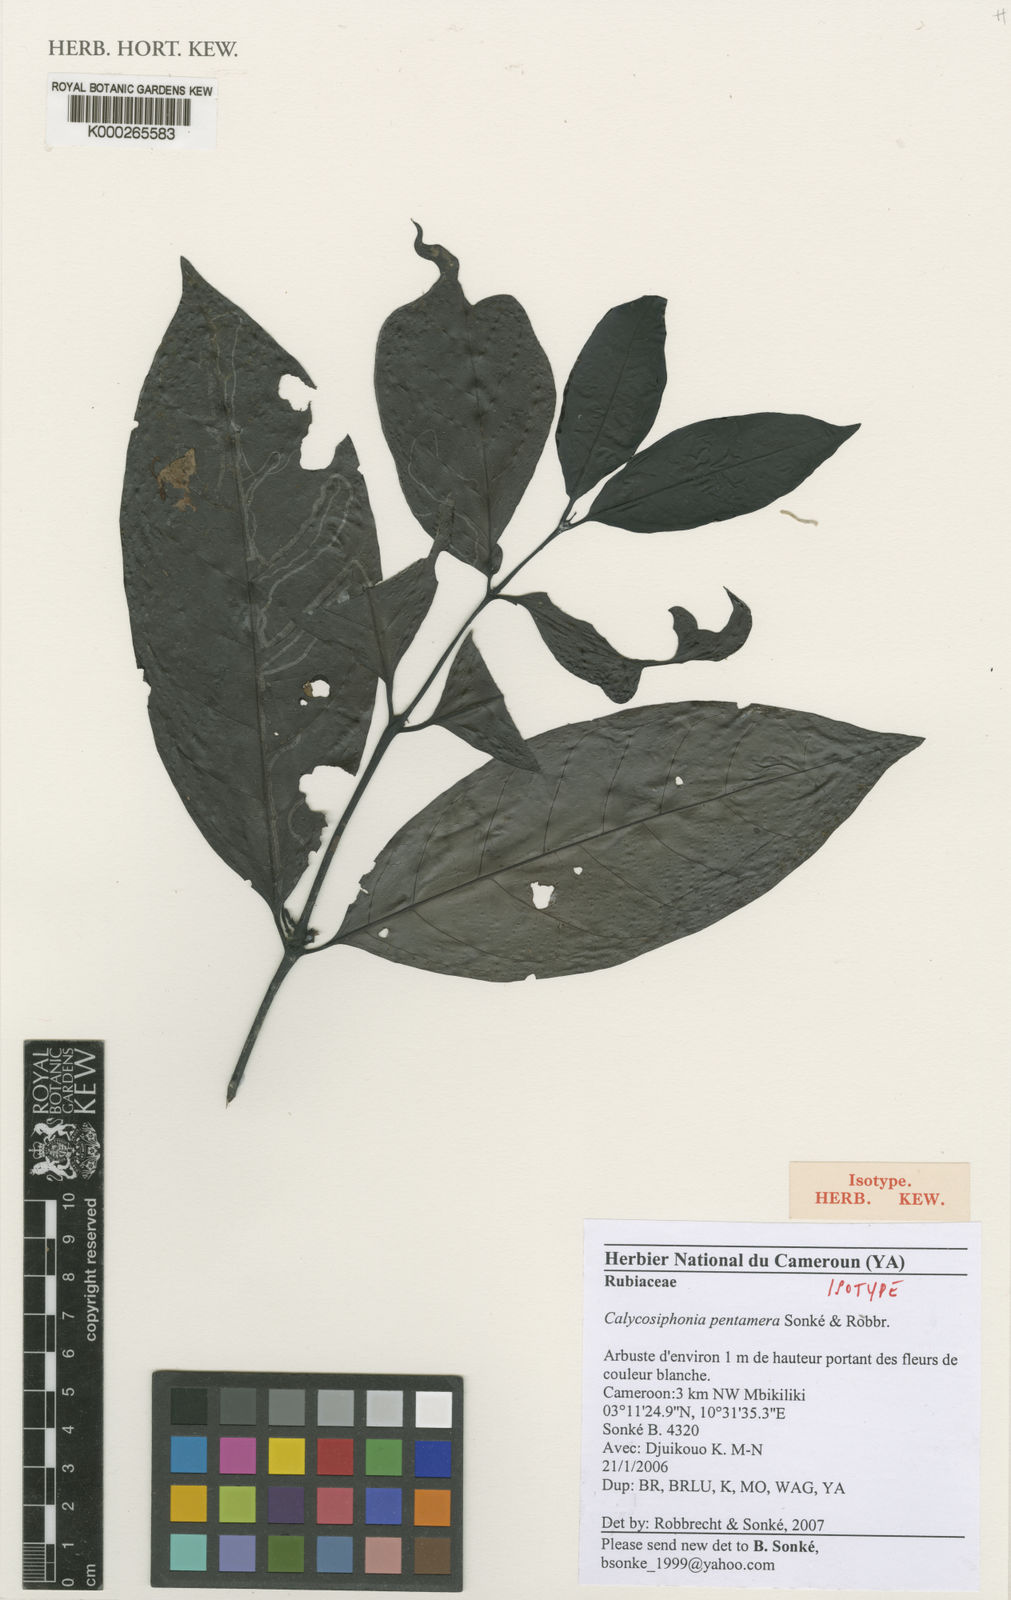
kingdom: Plantae
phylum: Tracheophyta
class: Magnoliopsida
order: Gentianales
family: Rubiaceae
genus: Kupeantha
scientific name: Kupeantha
